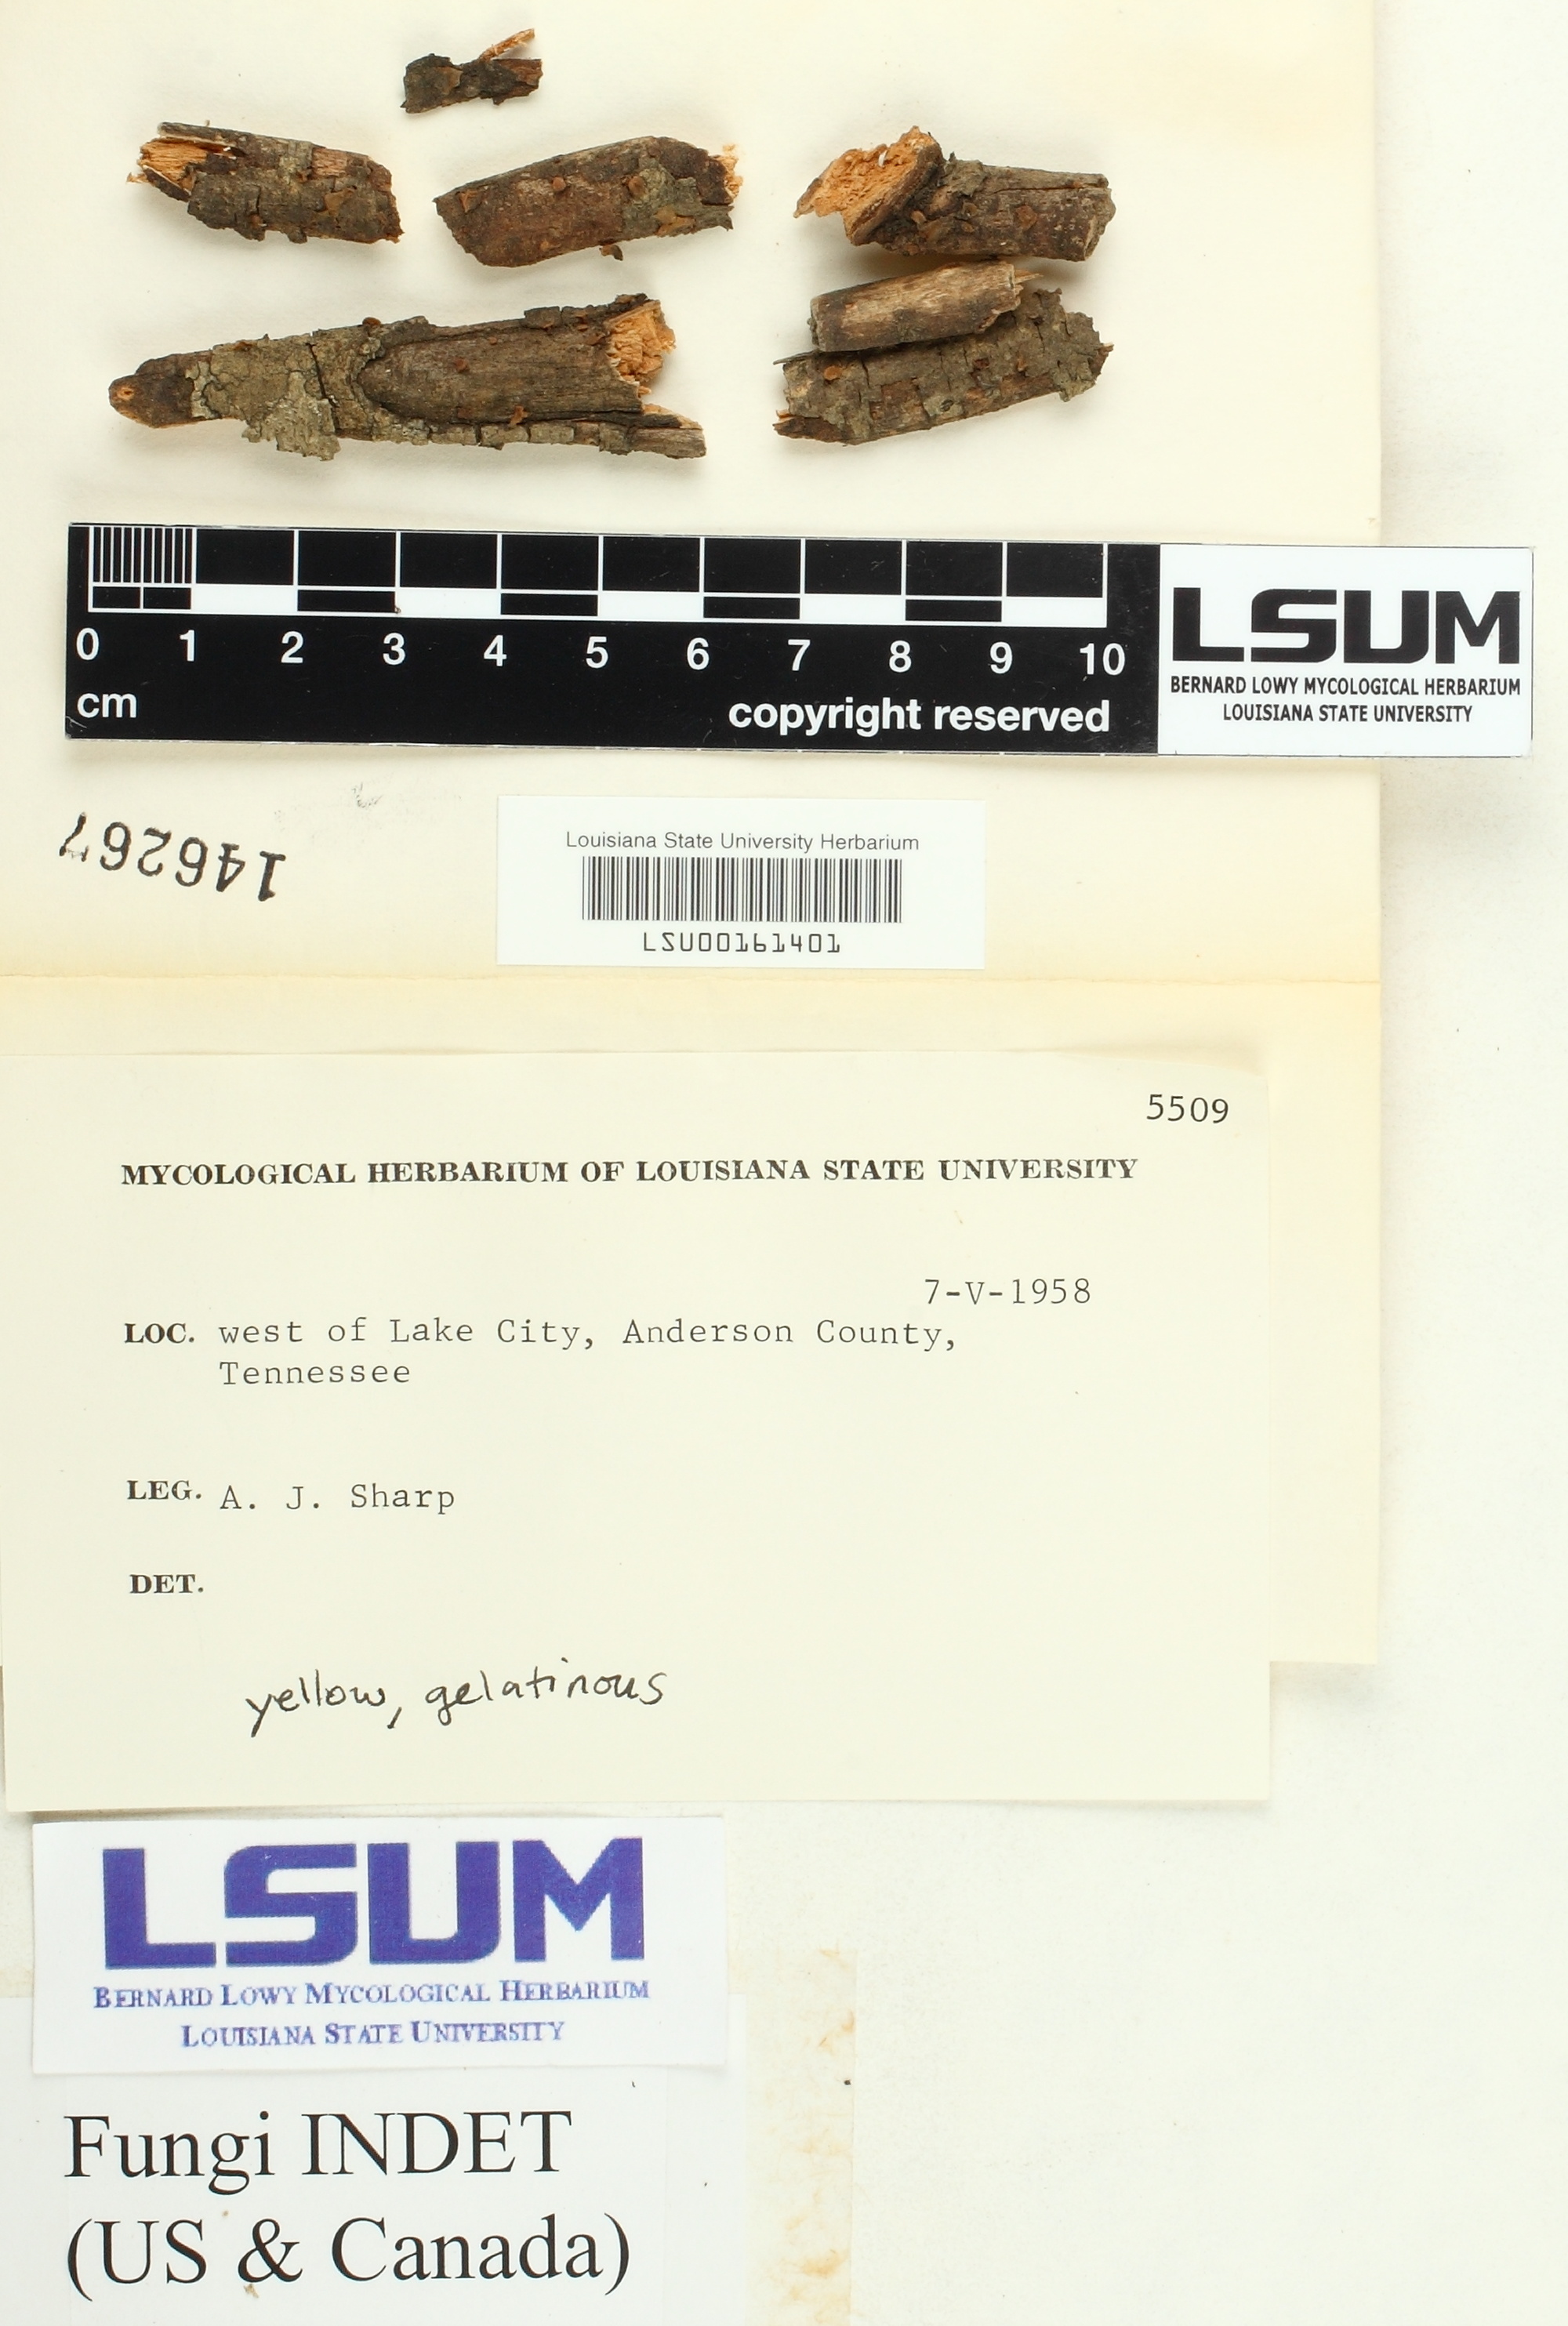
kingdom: Fungi
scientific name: Fungi
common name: Fungi
